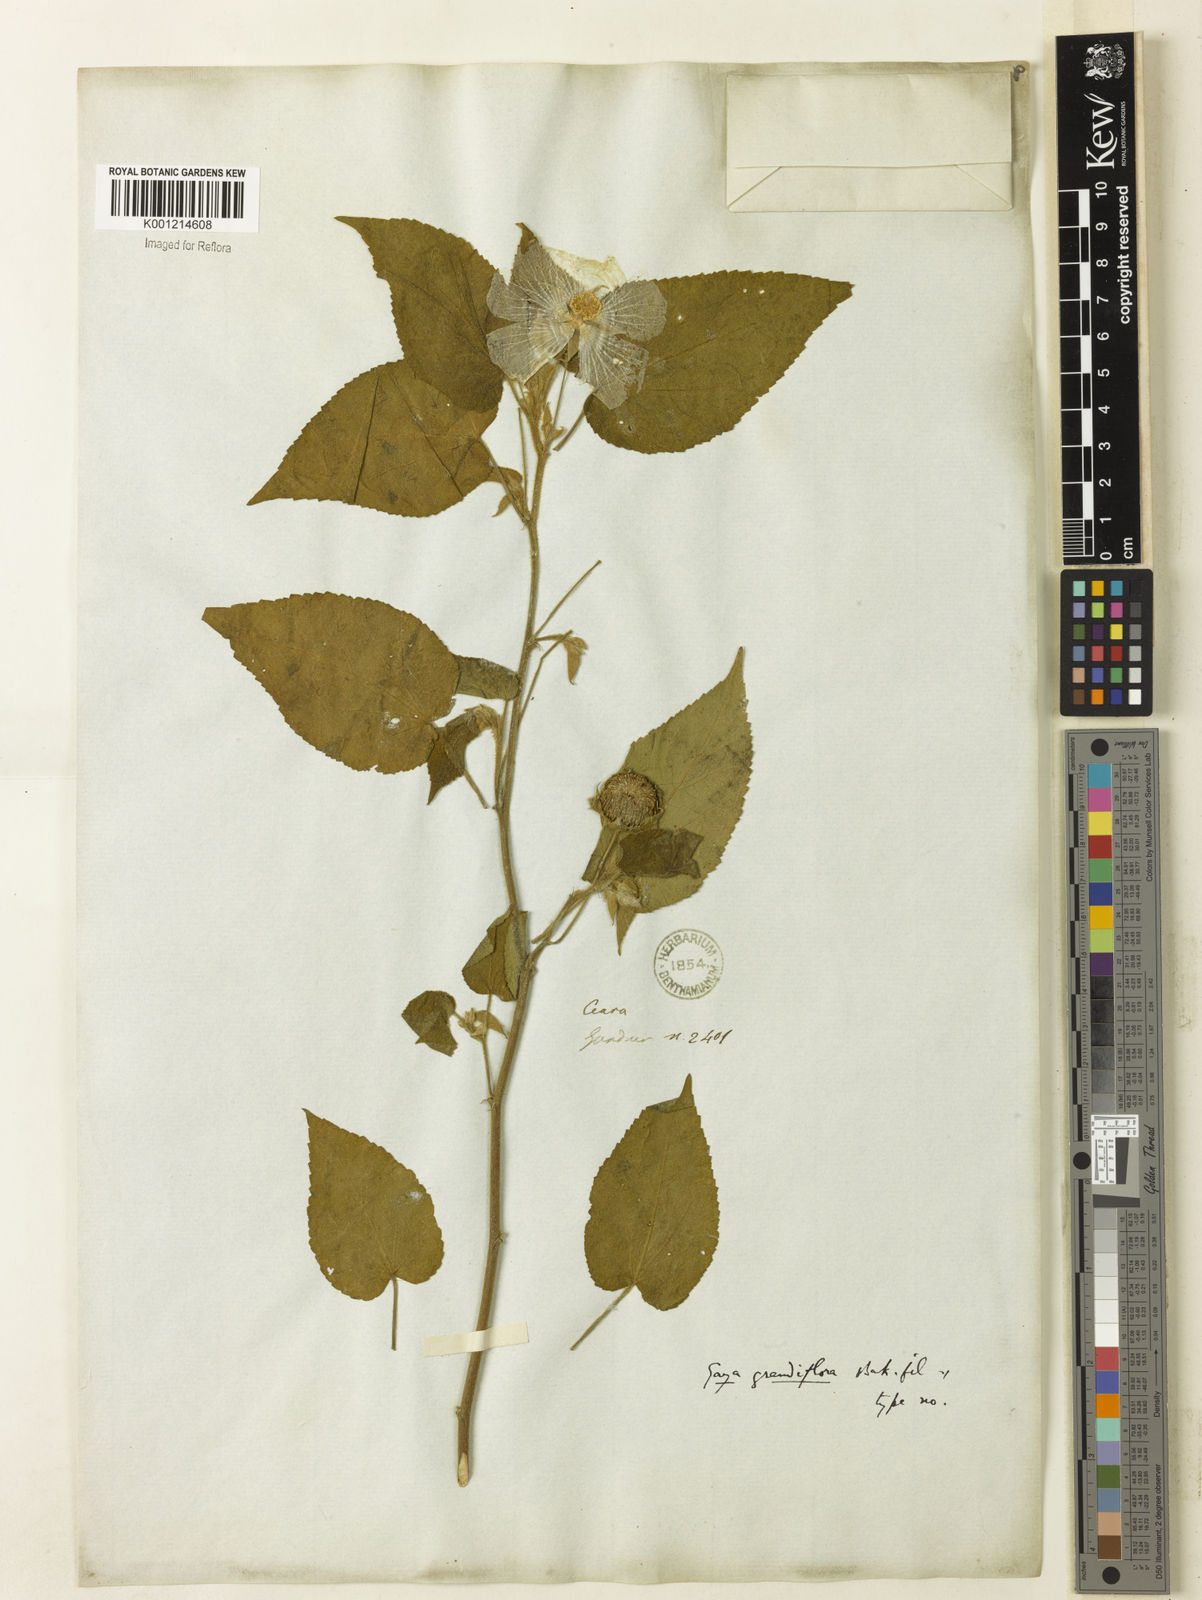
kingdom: Plantae
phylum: Tracheophyta
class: Magnoliopsida
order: Malvales
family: Malvaceae
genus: Gaya
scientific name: Gaya grandiflora
